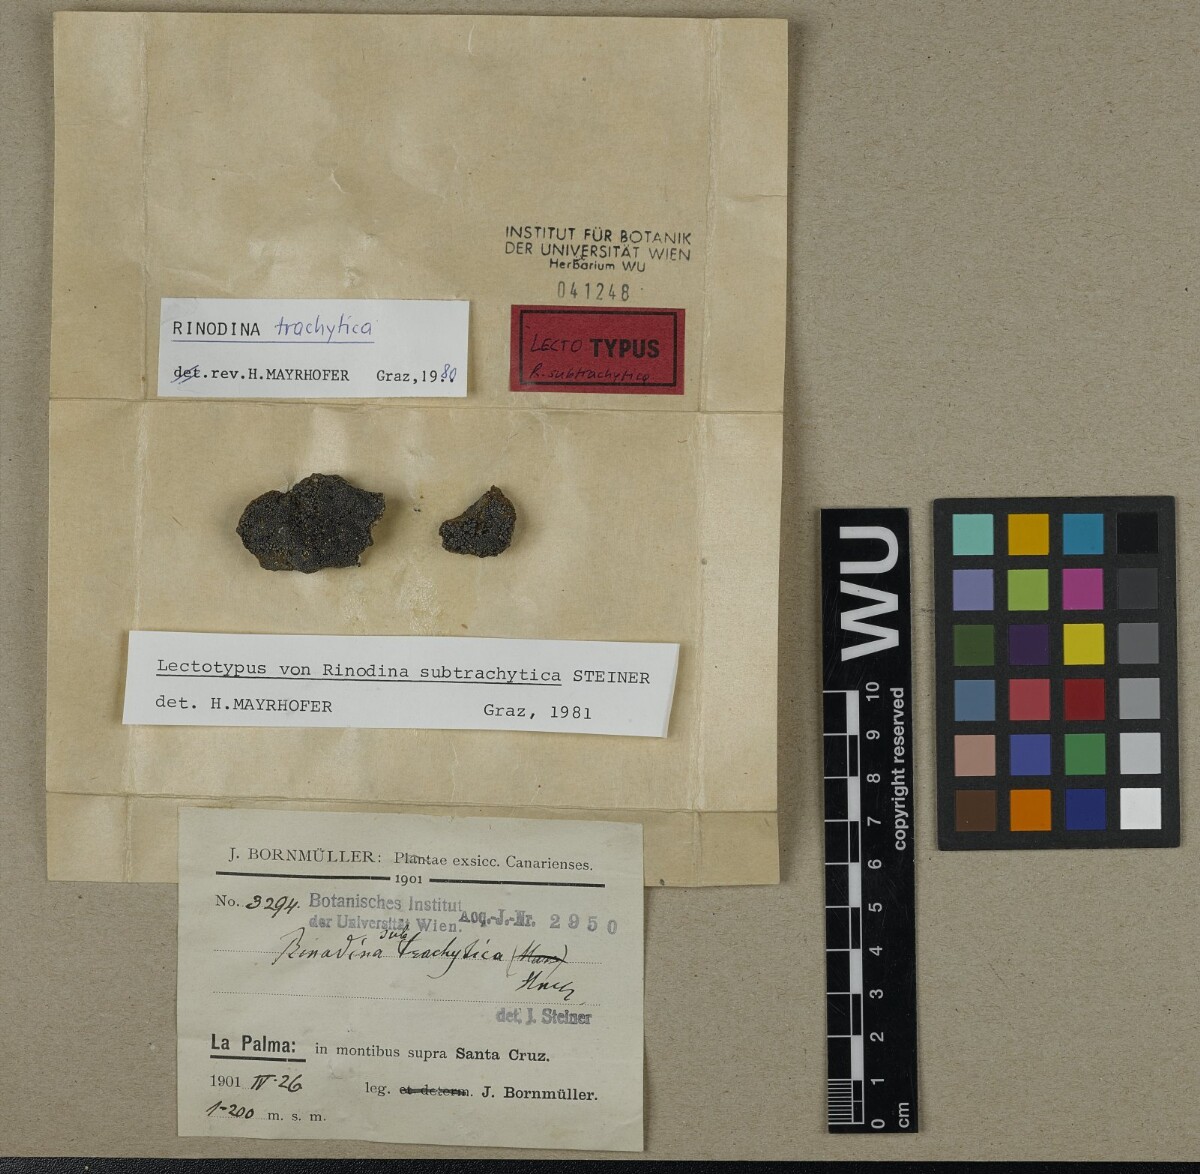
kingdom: Fungi
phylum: Ascomycota
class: Lecanoromycetes
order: Caliciales
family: Physciaceae
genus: Rinodina
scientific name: Rinodina lecanorina
